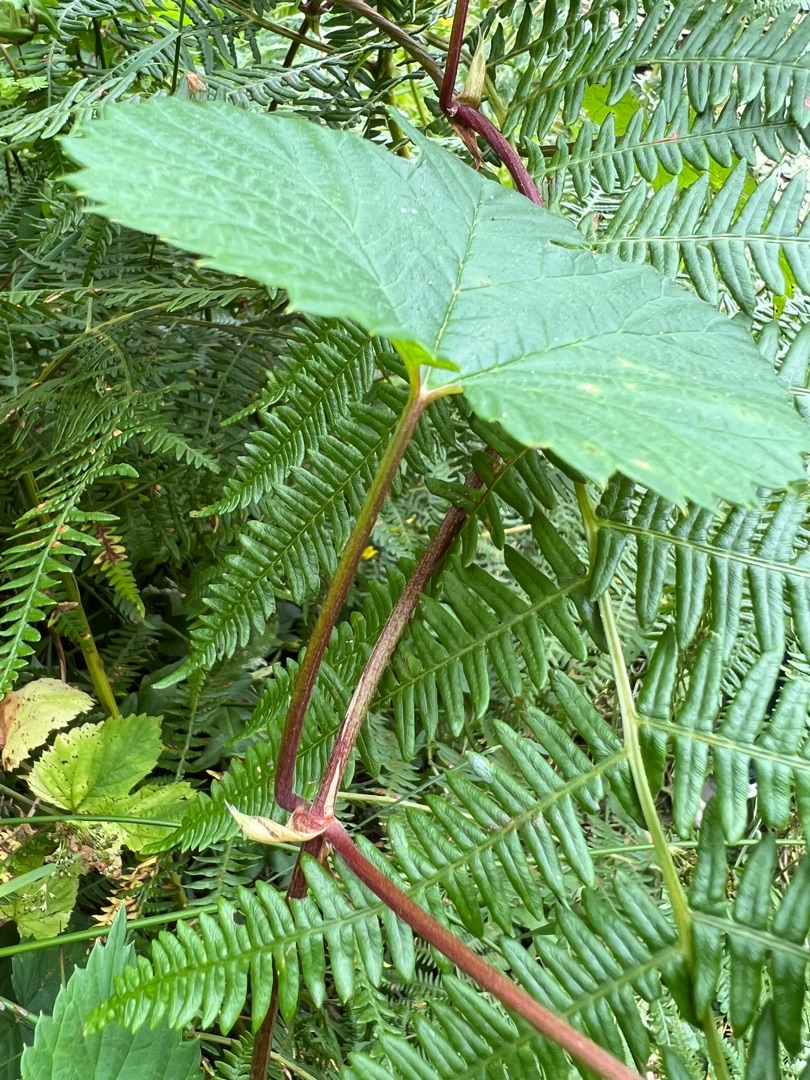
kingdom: Plantae
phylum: Tracheophyta
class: Magnoliopsida
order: Rosales
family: Cannabaceae
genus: Humulus
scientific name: Humulus lupulus
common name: Humle
